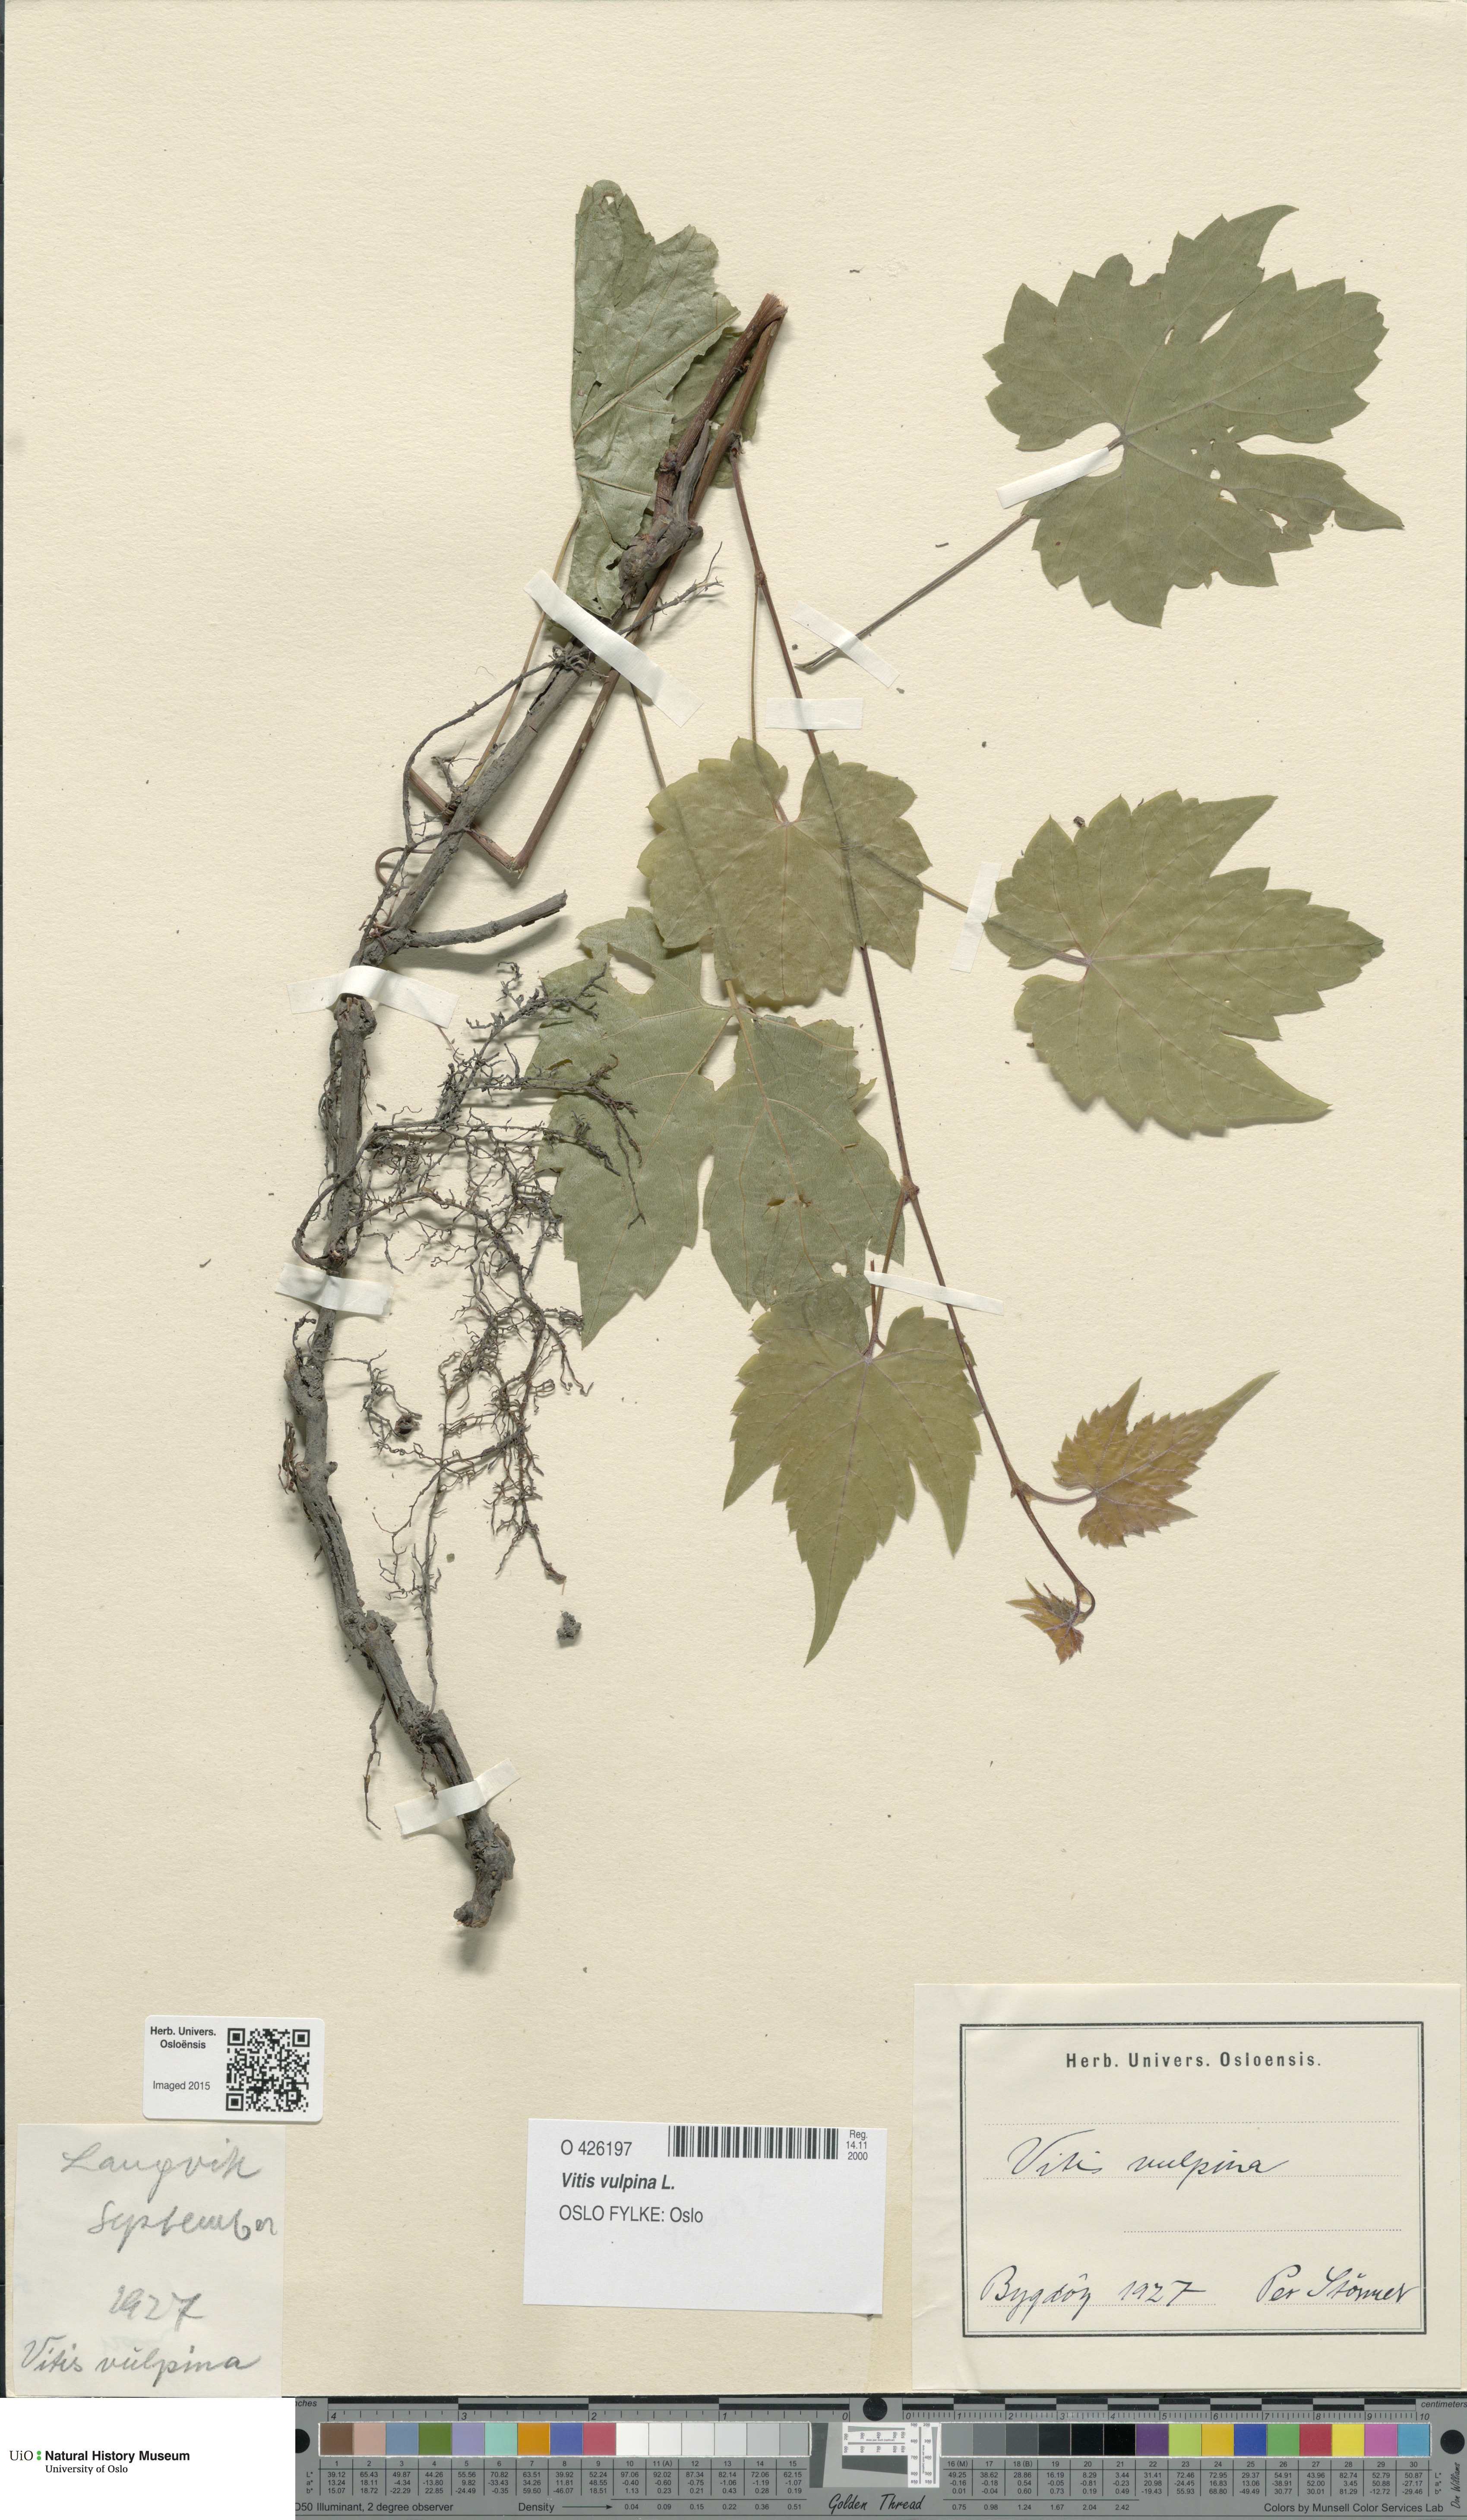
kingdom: Plantae
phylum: Tracheophyta
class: Magnoliopsida
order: Vitales
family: Vitaceae
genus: Vitis
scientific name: Vitis vulpina
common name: Frost grape
